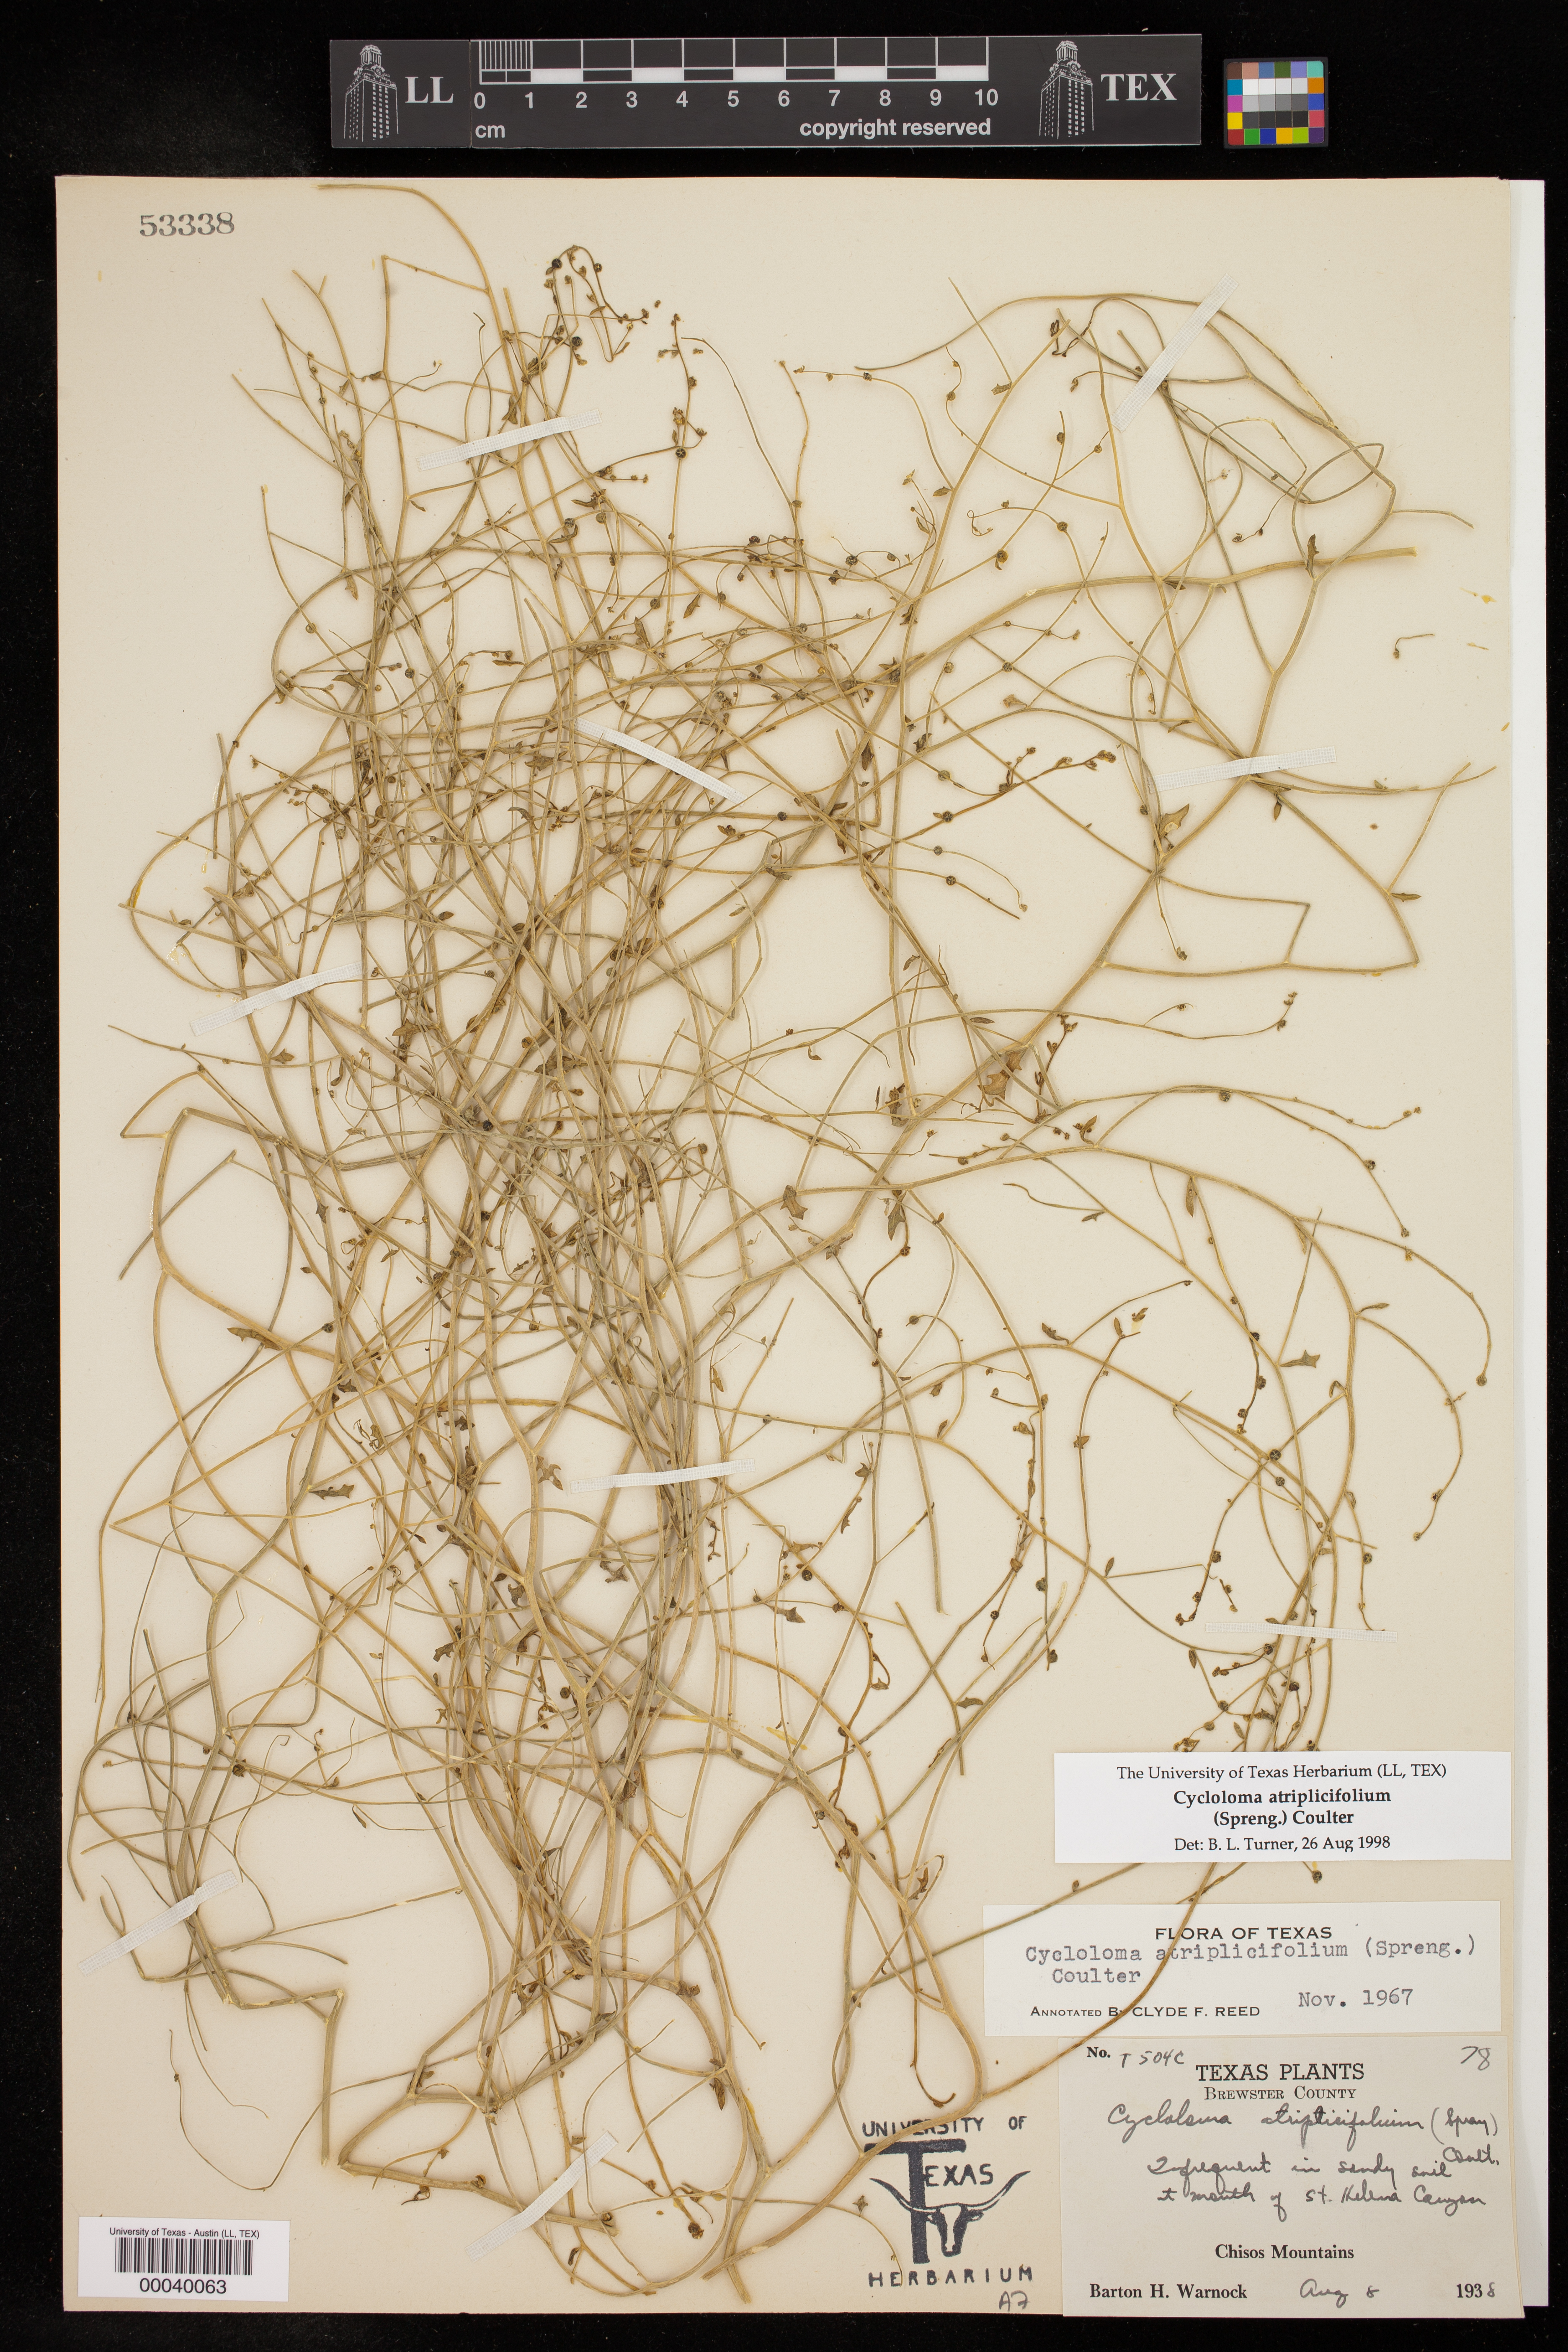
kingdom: Plantae
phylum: Tracheophyta
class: Magnoliopsida
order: Caryophyllales
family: Amaranthaceae
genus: Dysphania
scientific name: Dysphania atriplicifolia
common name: Plains tumbleweed
